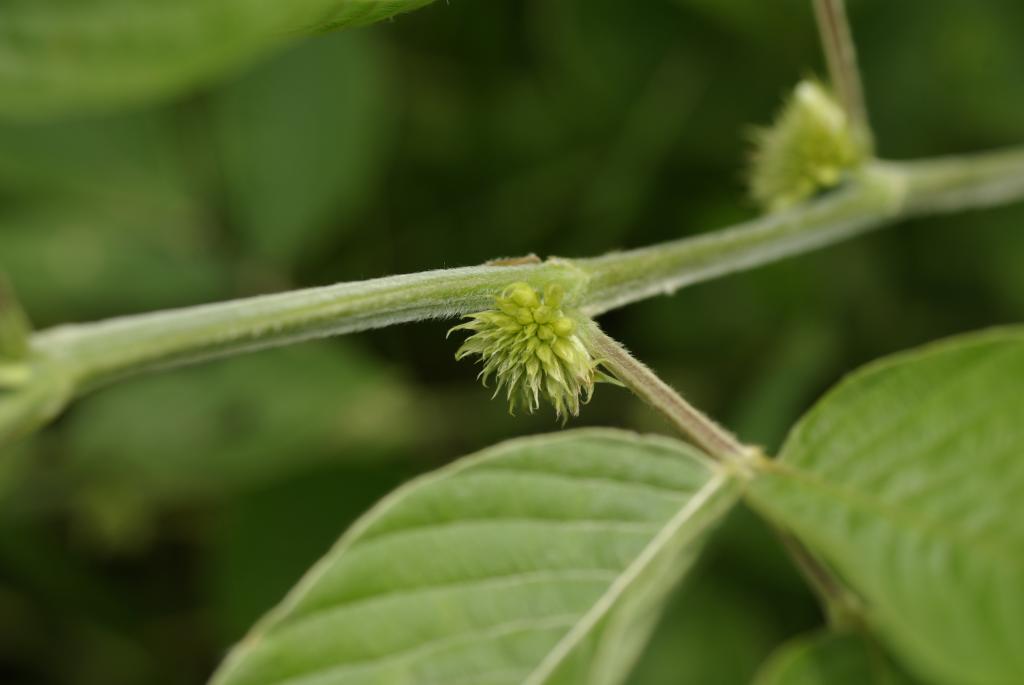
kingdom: Plantae
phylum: Tracheophyta
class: Magnoliopsida
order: Fabales
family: Fabaceae
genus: Dendrolobium
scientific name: Dendrolobium trianglare
